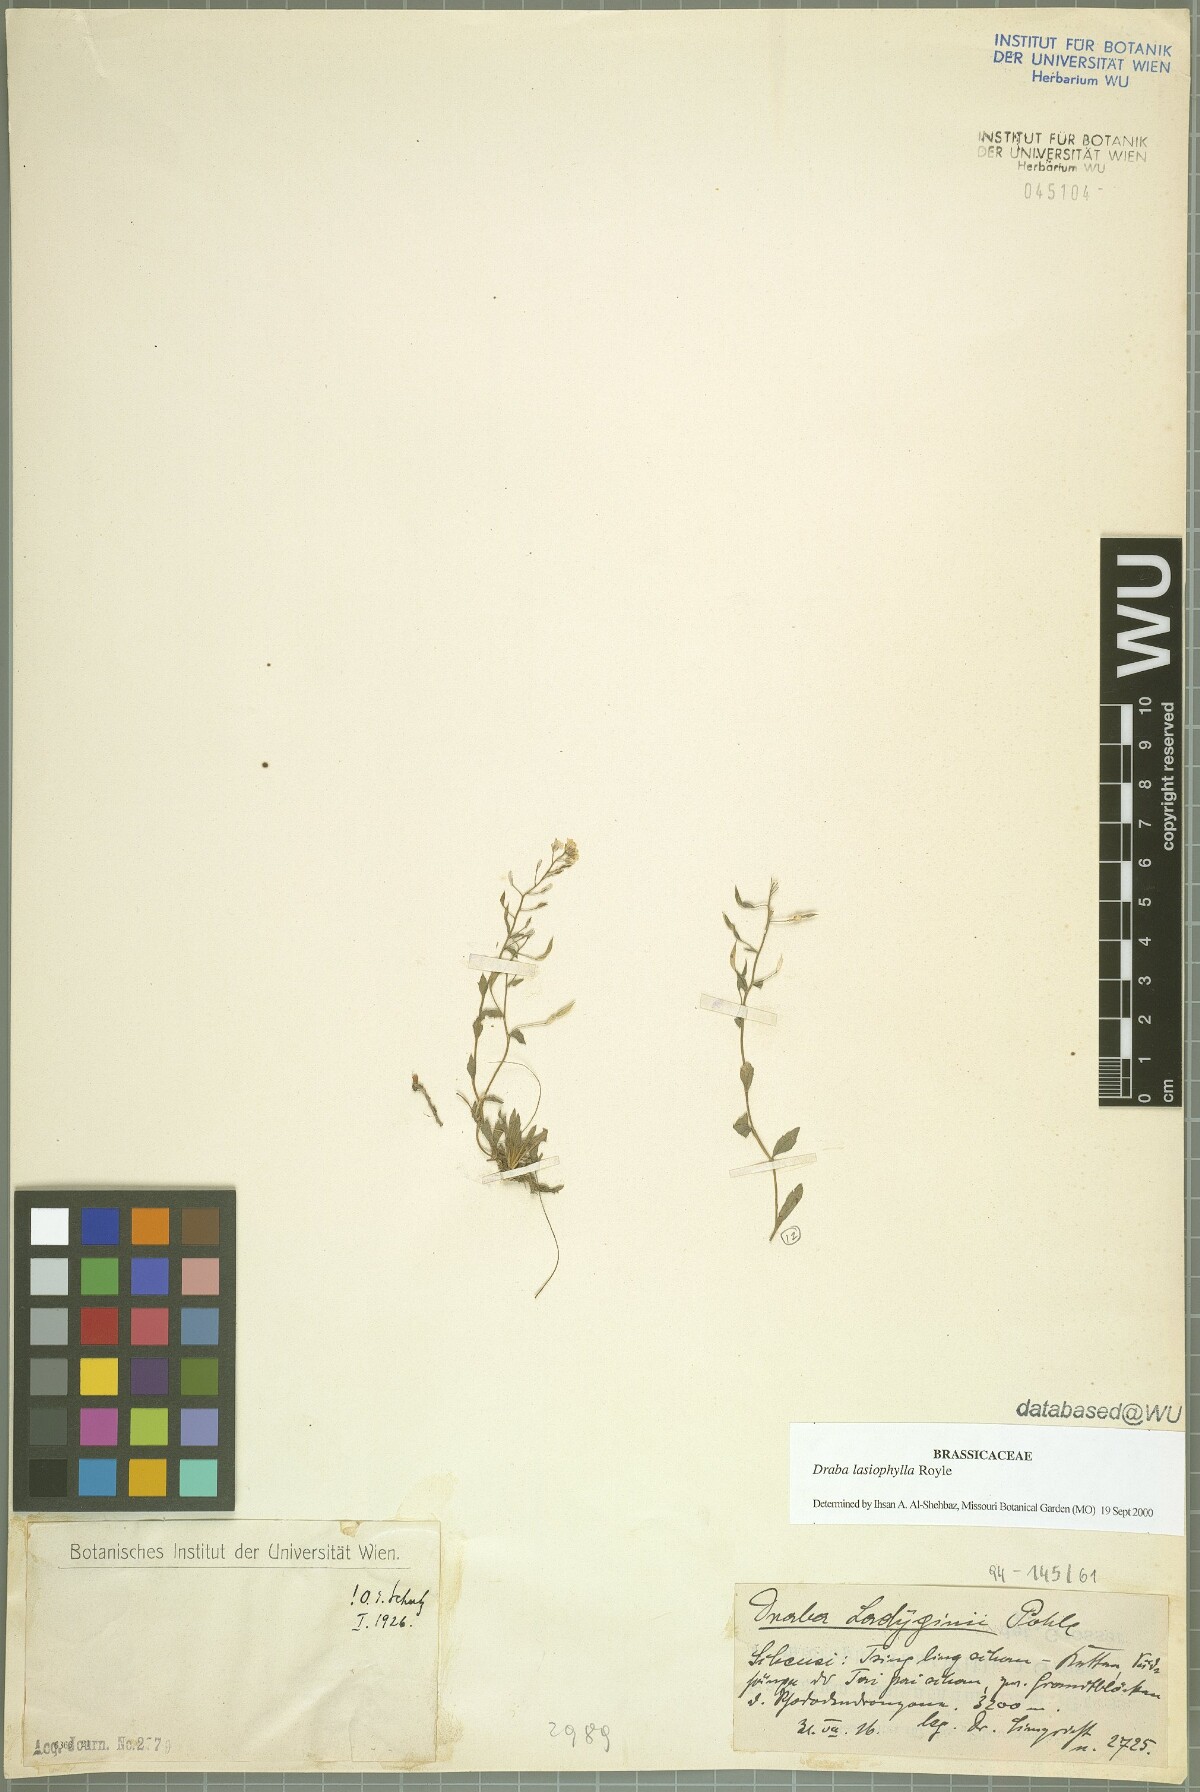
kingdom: Plantae
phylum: Tracheophyta
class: Magnoliopsida
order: Brassicales
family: Brassicaceae
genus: Draba
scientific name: Draba lasiophylla
